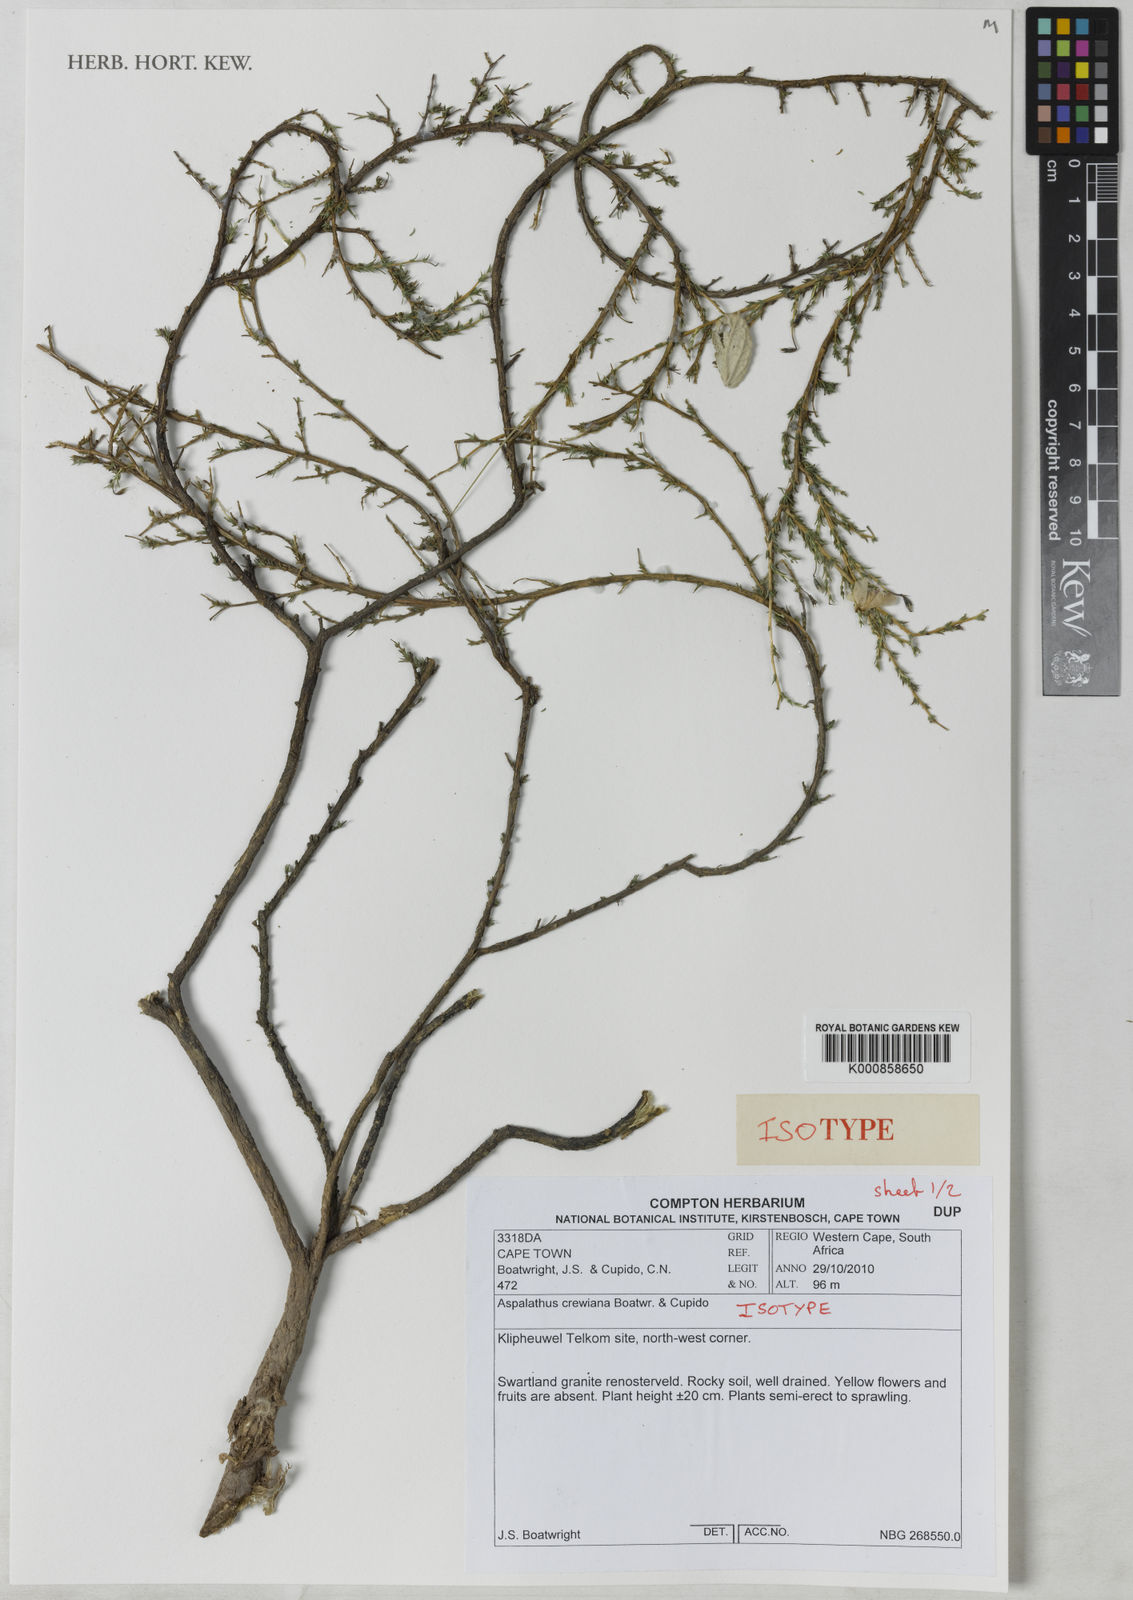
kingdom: Plantae
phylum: Tracheophyta
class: Magnoliopsida
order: Fabales
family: Fabaceae
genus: Aspalathus
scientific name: Aspalathus crewiana
